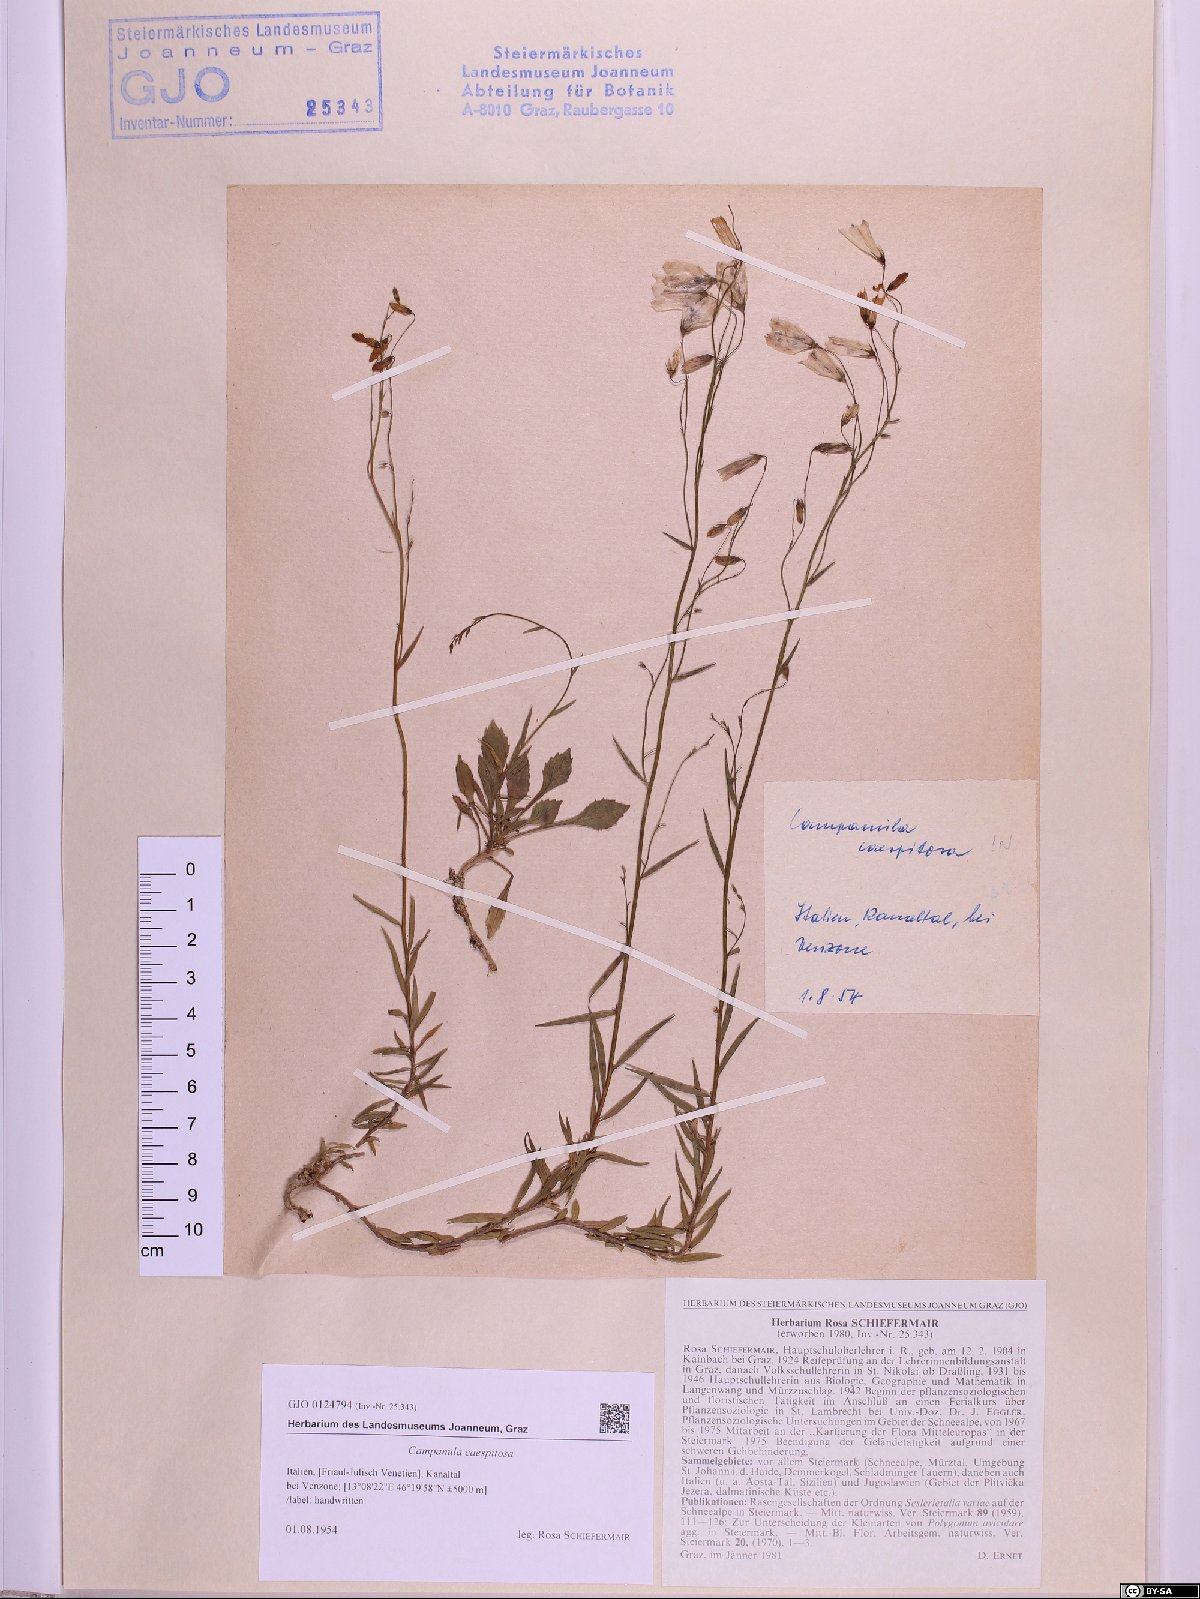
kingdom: Plantae
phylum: Tracheophyta
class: Magnoliopsida
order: Asterales
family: Campanulaceae
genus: Campanula
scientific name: Campanula caespitosa
